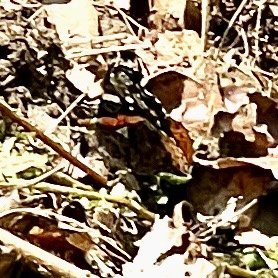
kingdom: Animalia
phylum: Arthropoda
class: Insecta
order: Lepidoptera
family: Nymphalidae
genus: Vanessa
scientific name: Vanessa atalanta
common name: Red Admiral
